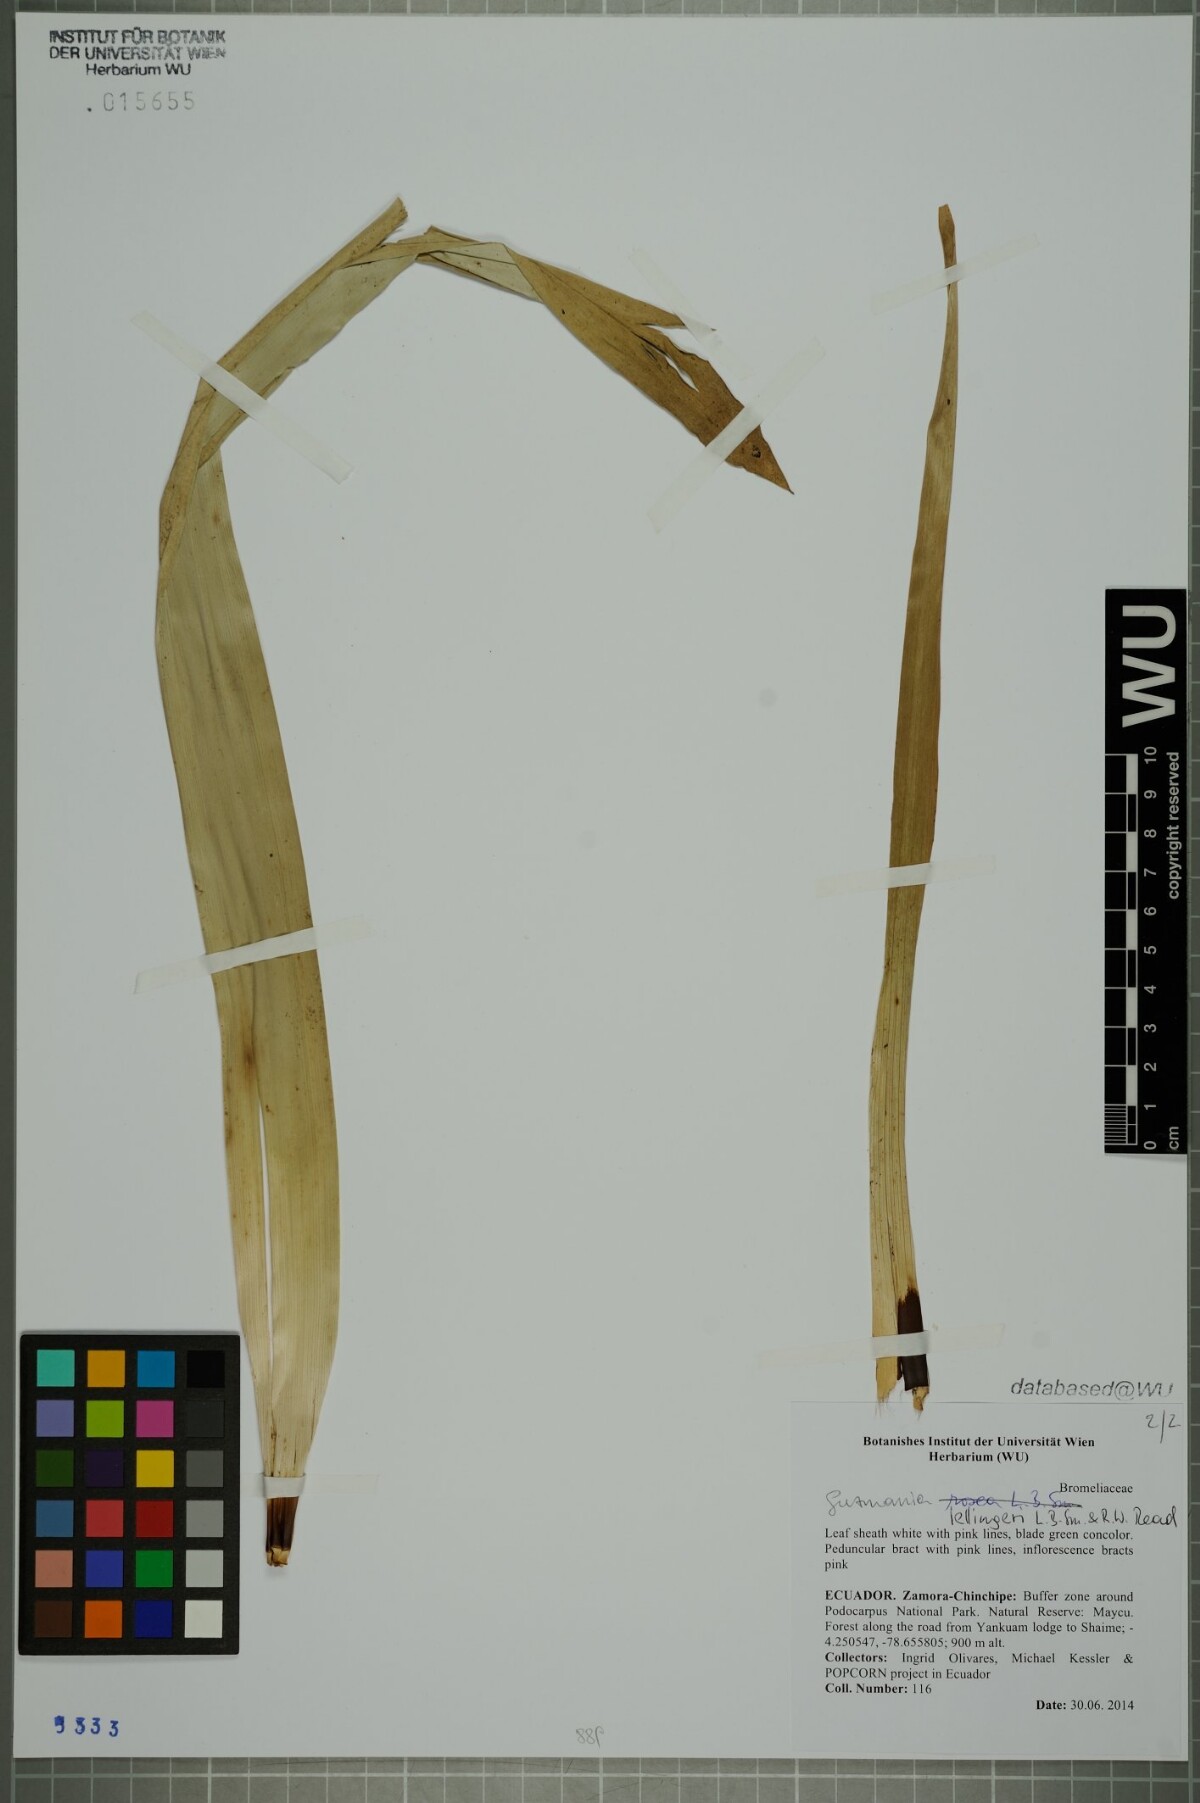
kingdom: Plantae
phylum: Tracheophyta
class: Liliopsida
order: Poales
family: Bromeliaceae
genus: Guzmania
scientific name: Guzmania sprucei
